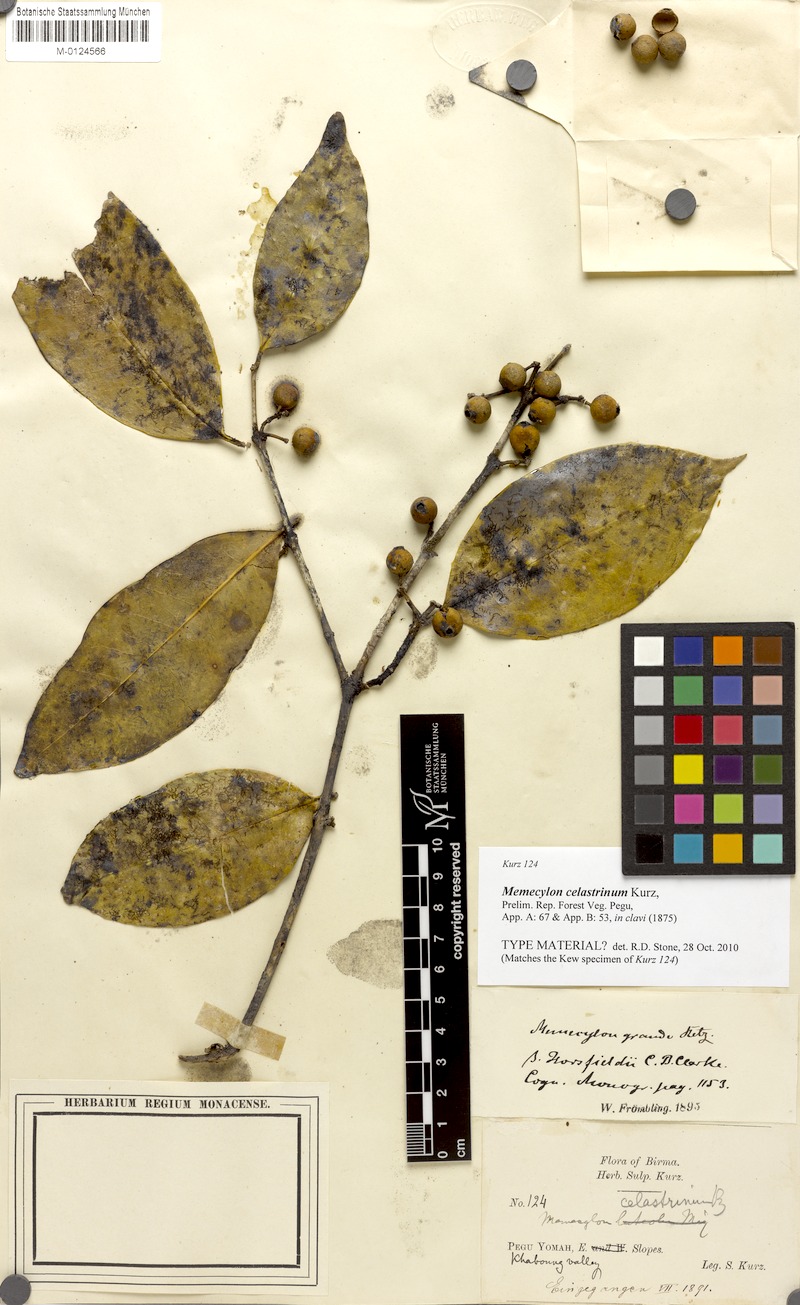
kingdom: Plantae
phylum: Tracheophyta
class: Magnoliopsida
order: Myrtales
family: Melastomataceae
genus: Memecylon
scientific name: Memecylon grande
